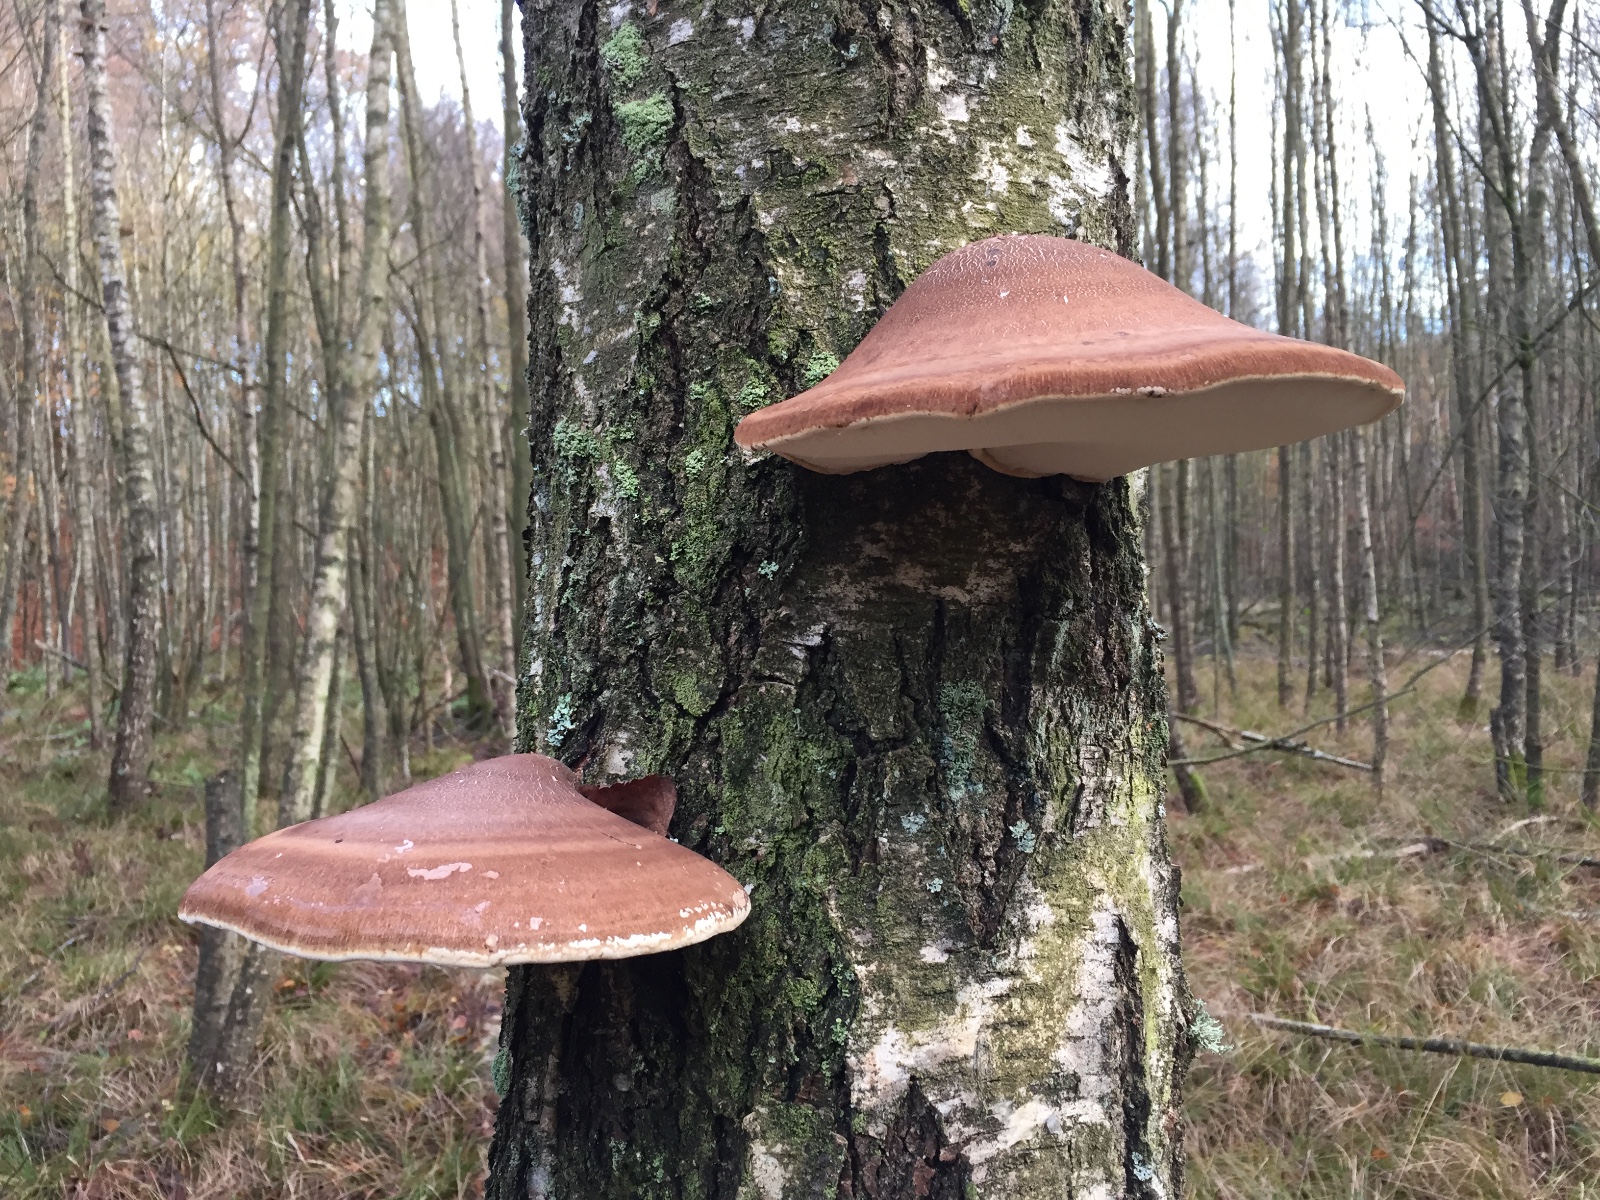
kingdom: Fungi
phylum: Basidiomycota
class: Agaricomycetes
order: Polyporales
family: Fomitopsidaceae
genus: Fomitopsis
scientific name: Fomitopsis betulina
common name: birkeporesvamp
